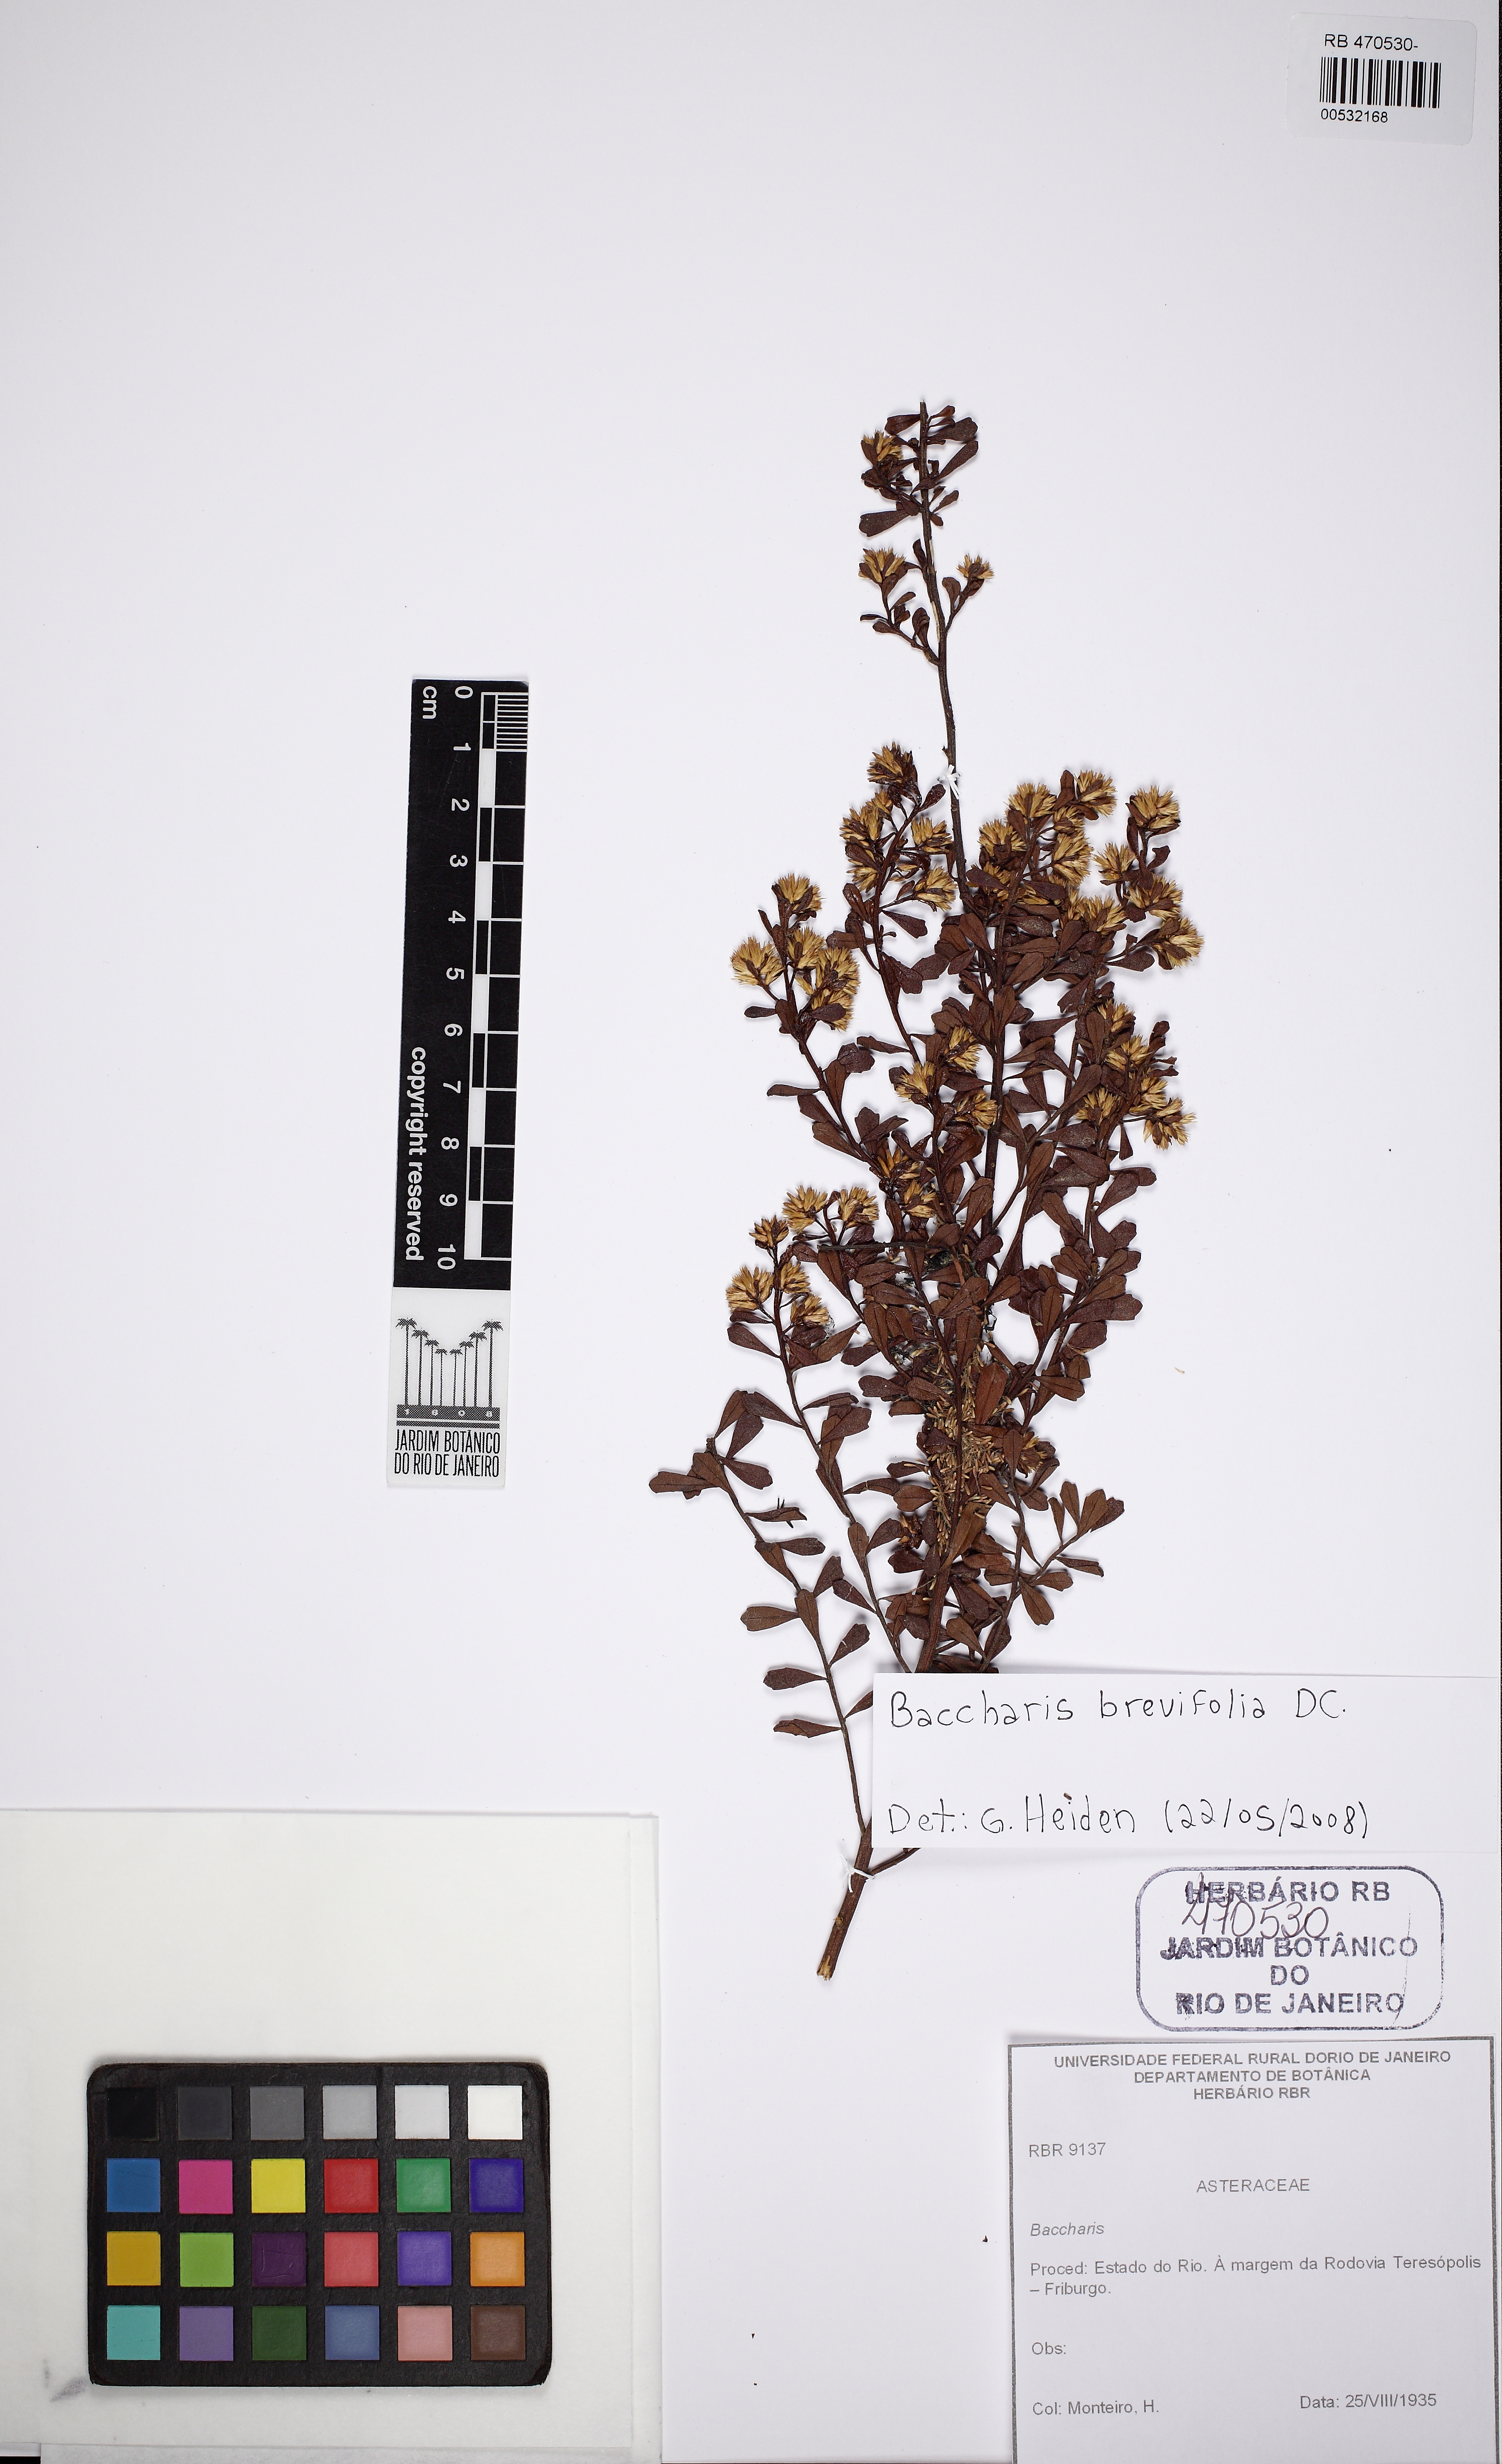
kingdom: Plantae
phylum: Tracheophyta
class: Magnoliopsida
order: Asterales
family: Asteraceae
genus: Baccharis
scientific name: Baccharis brevifolia
